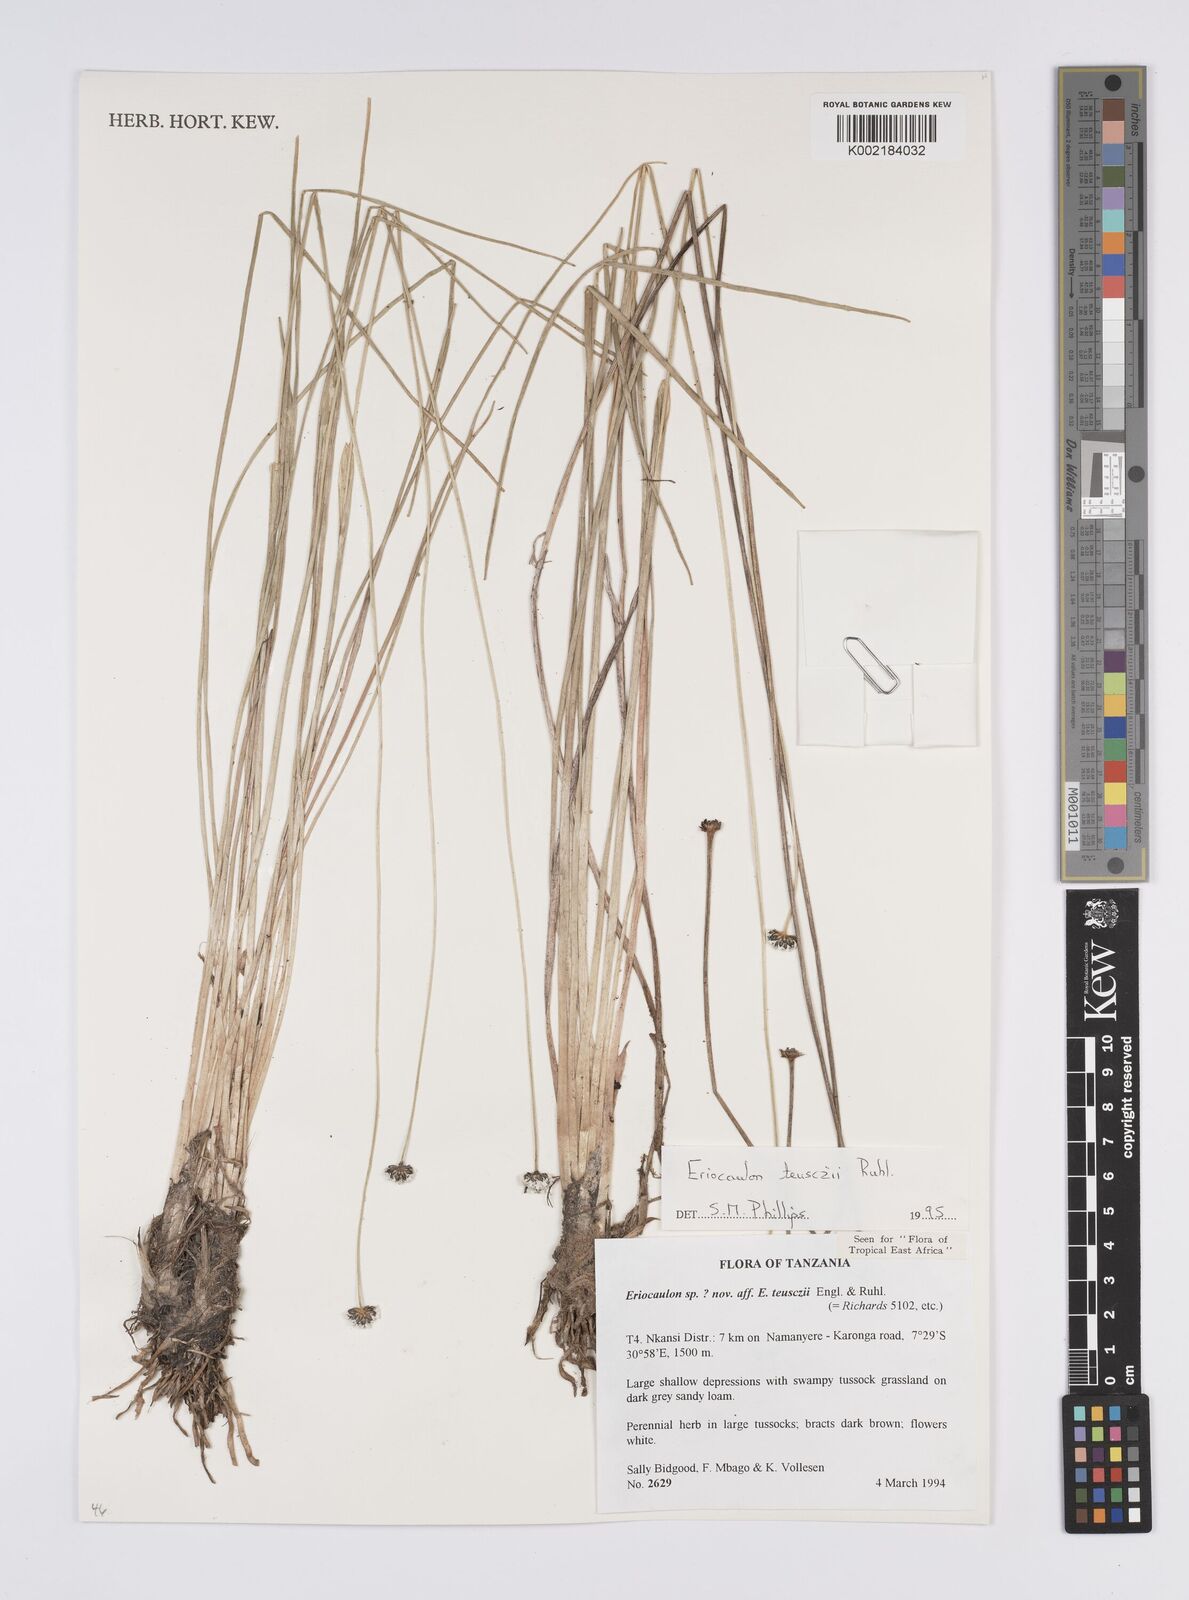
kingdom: Plantae
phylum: Tracheophyta
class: Liliopsida
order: Poales
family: Eriocaulaceae
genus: Eriocaulon
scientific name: Eriocaulon teusczii
